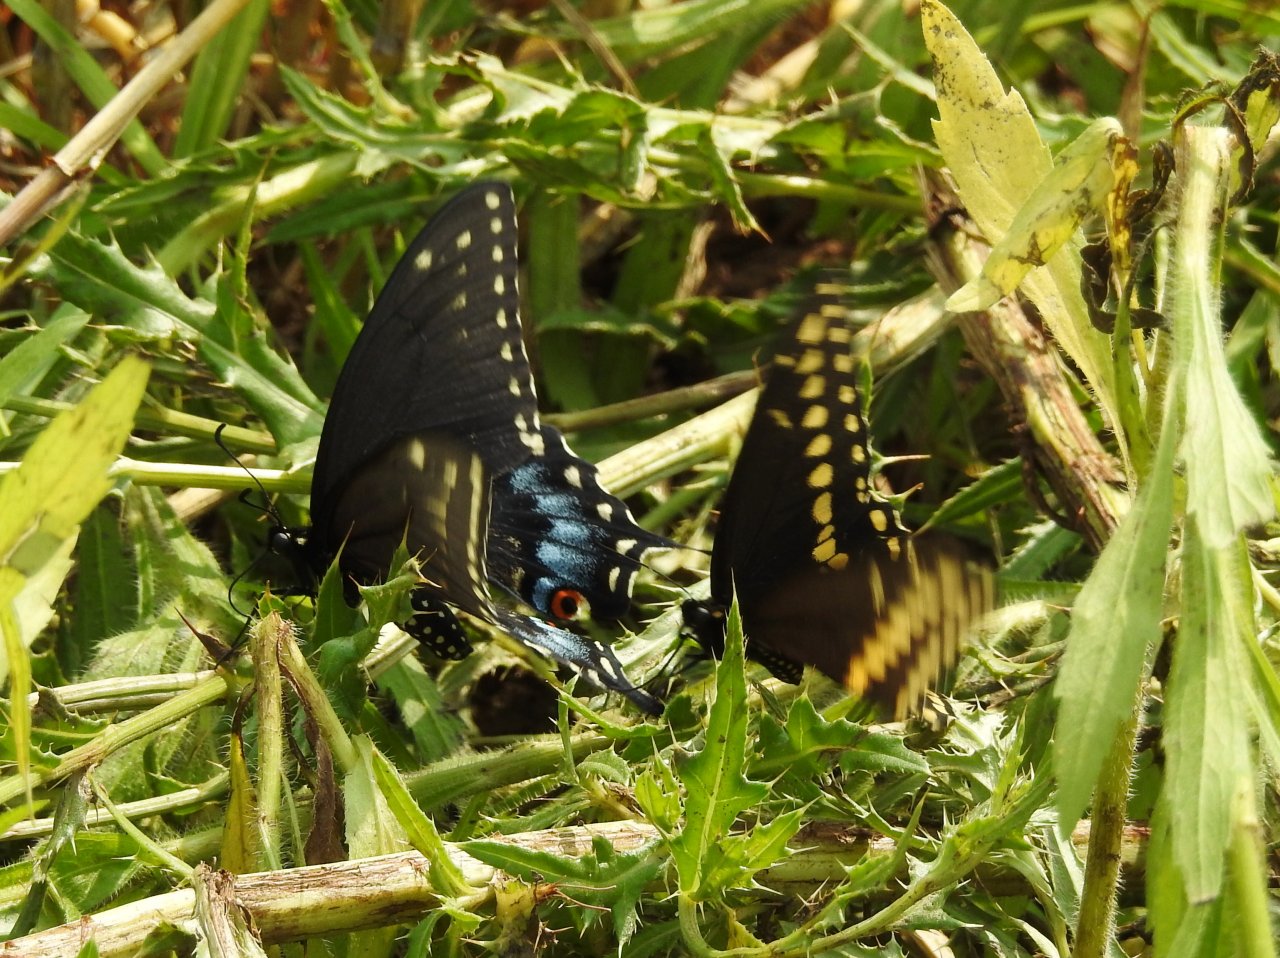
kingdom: Animalia
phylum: Arthropoda
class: Insecta
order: Lepidoptera
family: Papilionidae
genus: Papilio
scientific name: Papilio polyxenes
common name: Black Swallowtail
